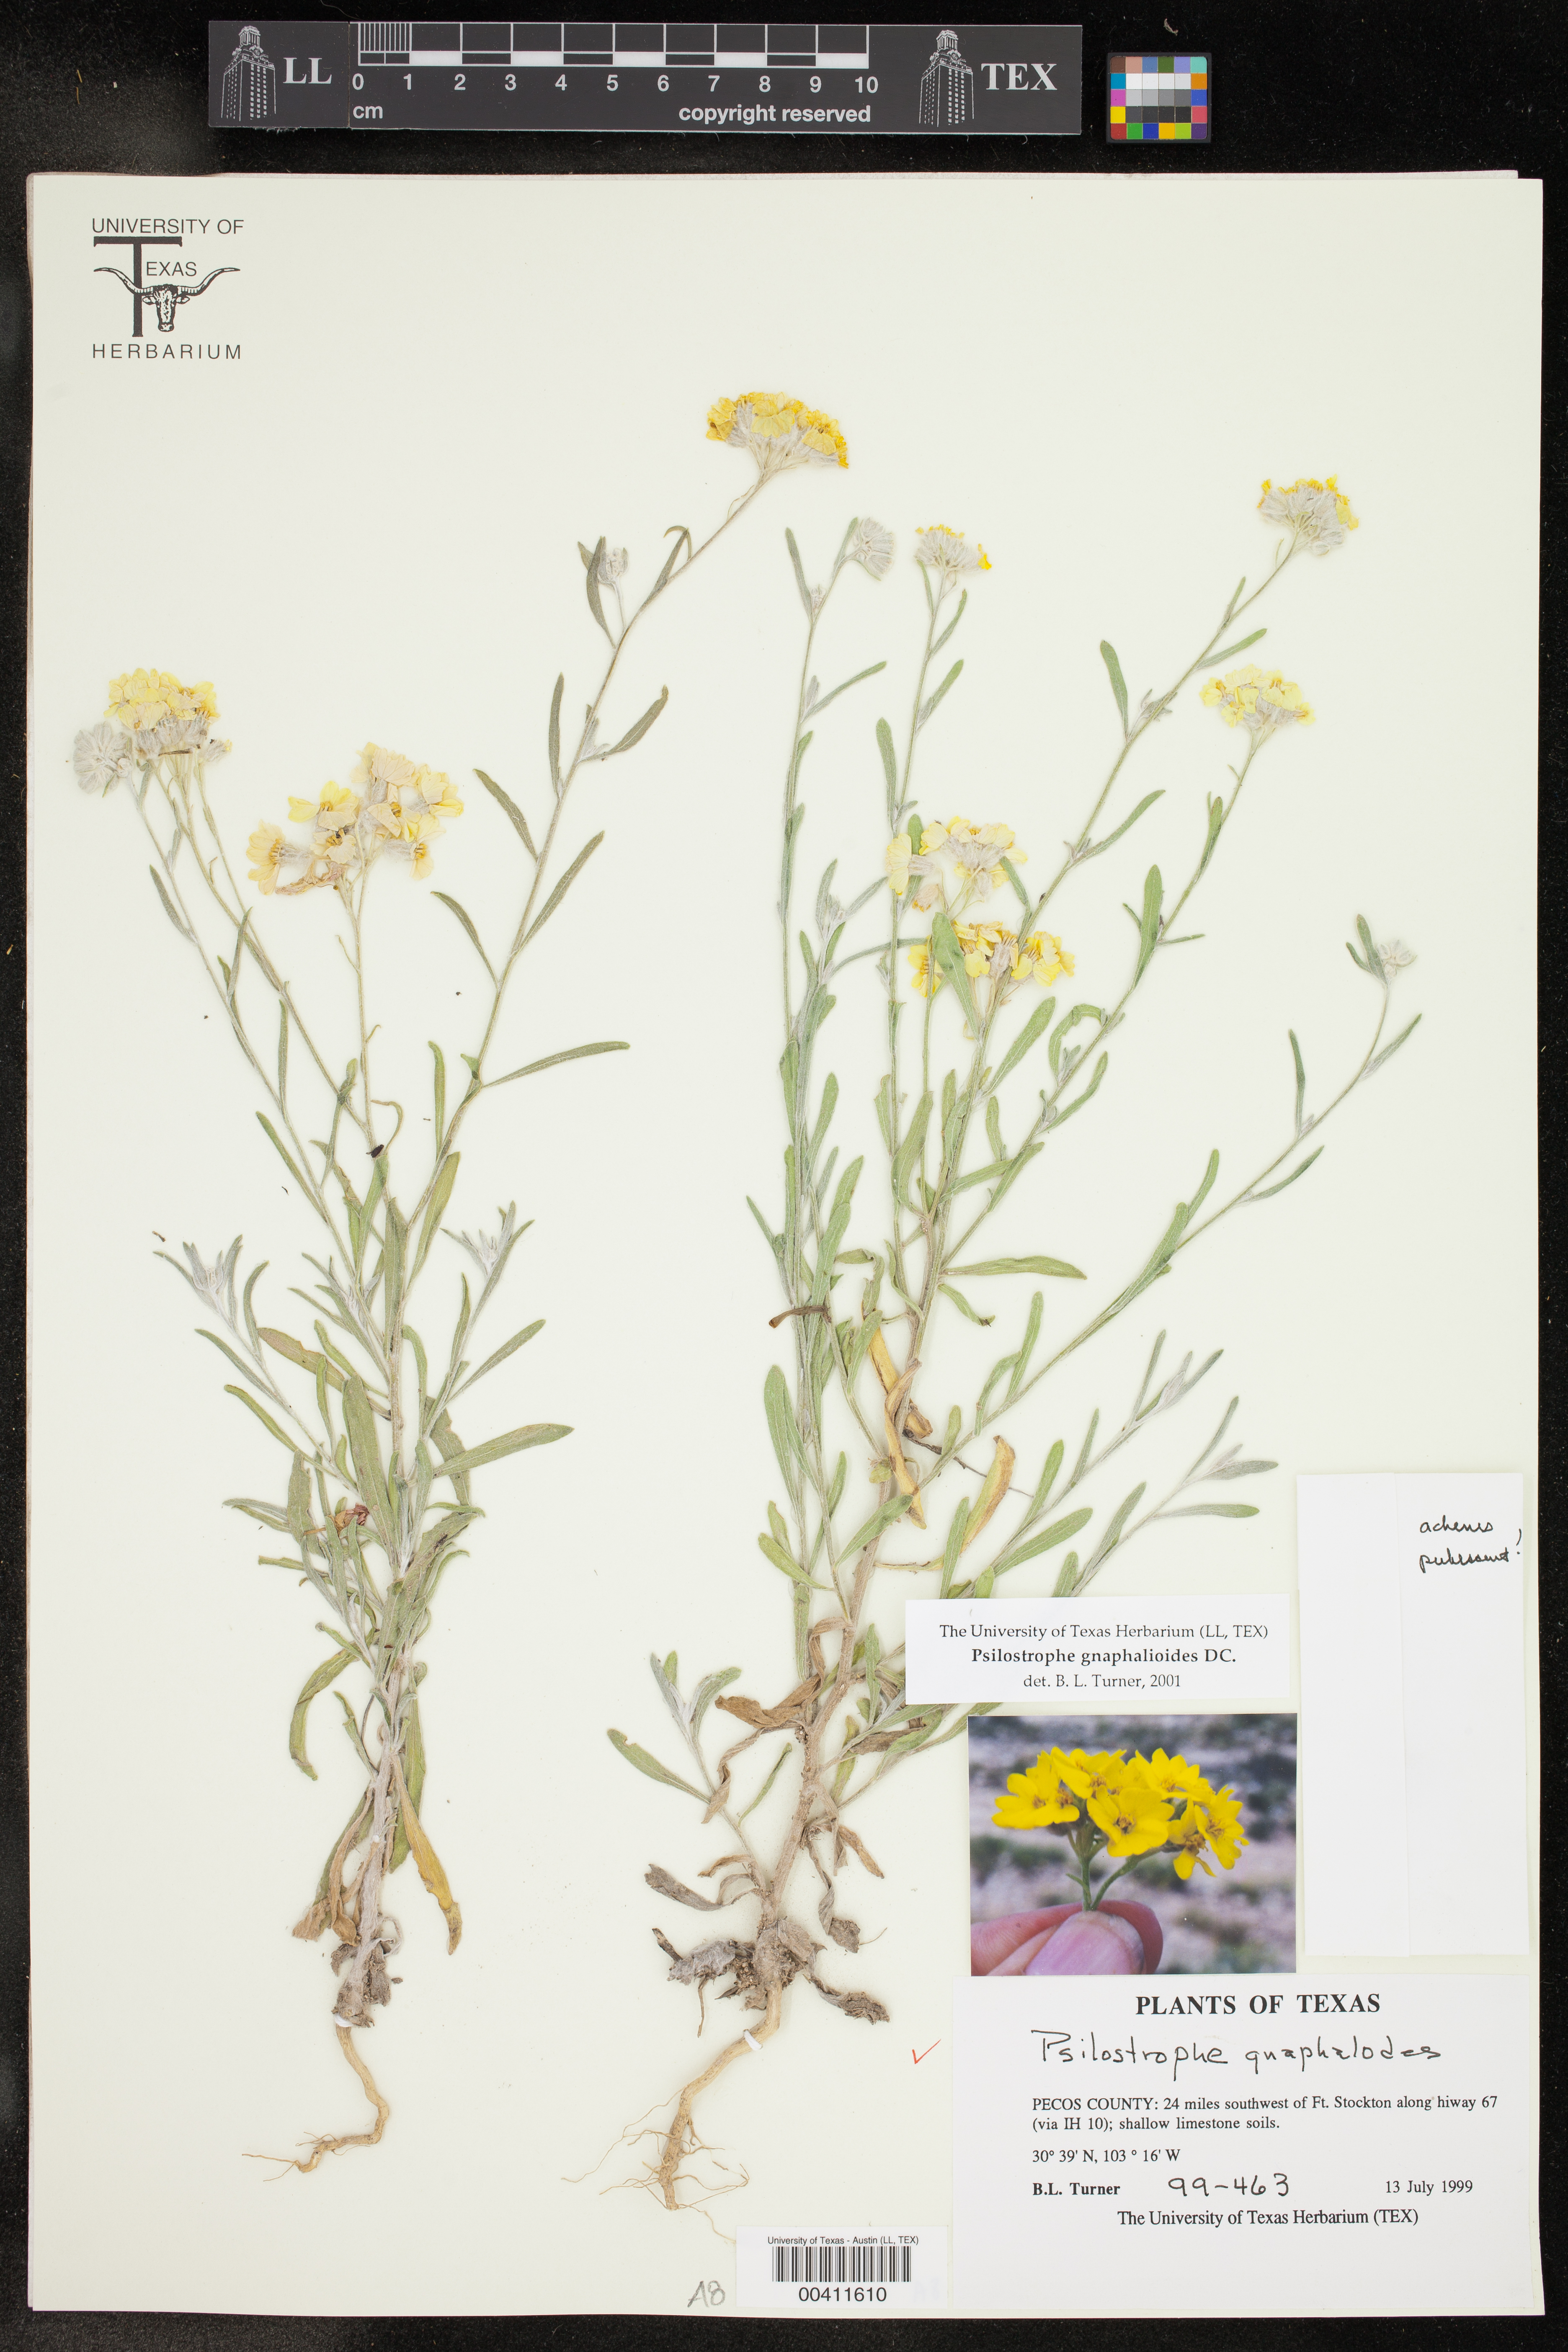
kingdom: Plantae
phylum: Tracheophyta
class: Magnoliopsida
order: Asterales
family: Asteraceae
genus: Psilostrophe
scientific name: Psilostrophe gnaphalioides
